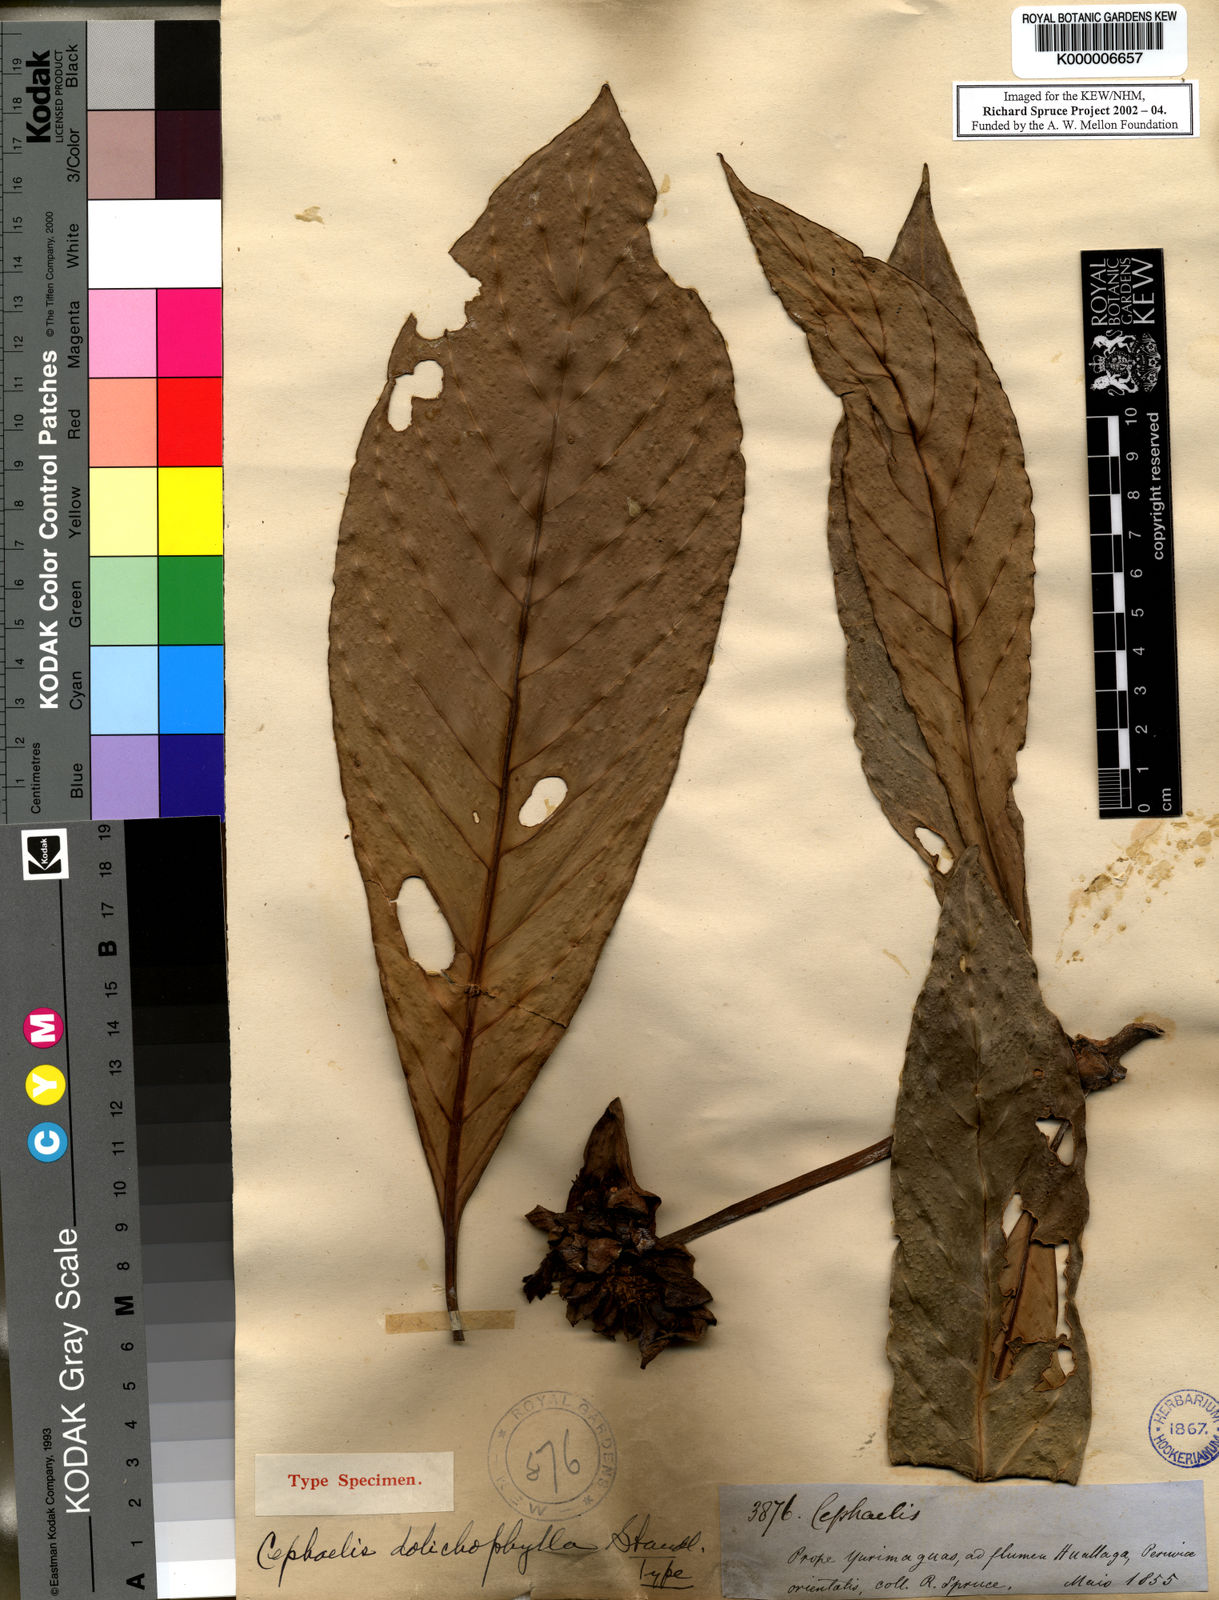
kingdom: Plantae
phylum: Tracheophyta
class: Magnoliopsida
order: Gentianales
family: Rubiaceae
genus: Carapichea
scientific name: Carapichea dolichophylla
